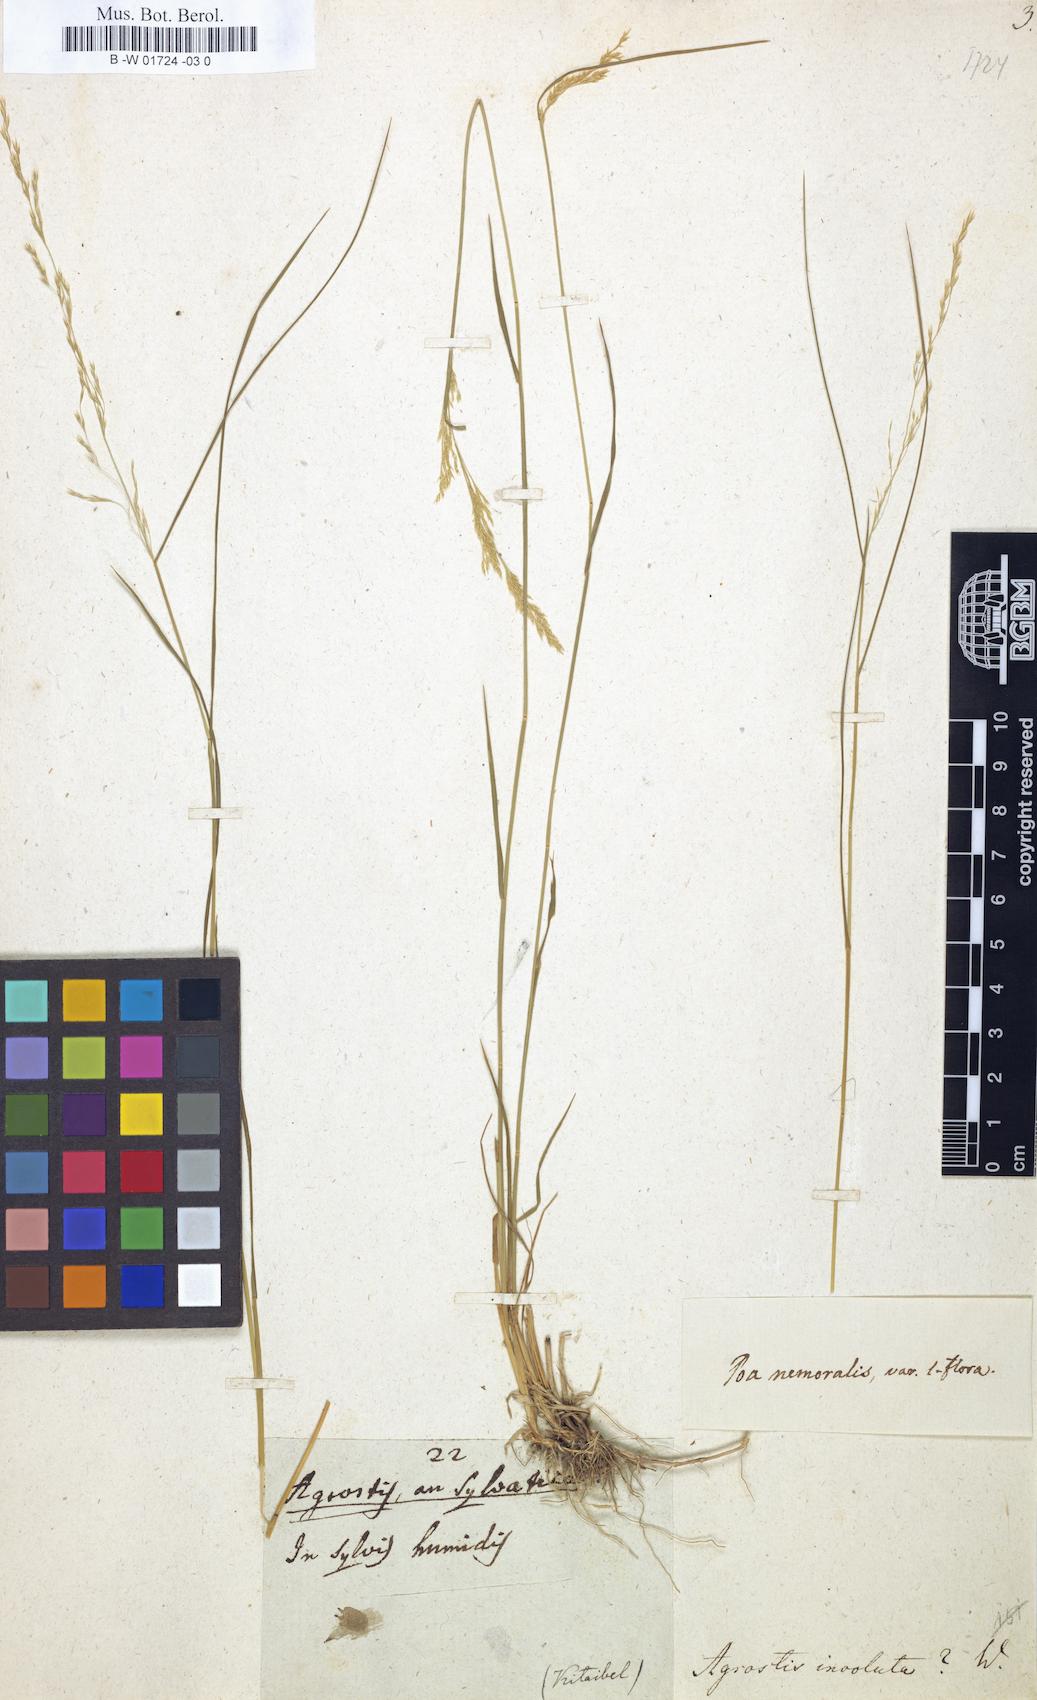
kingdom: Plantae
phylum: Tracheophyta
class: Liliopsida
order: Poales
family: Poaceae
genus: Sporobolus
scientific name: Sporobolus spicatus
